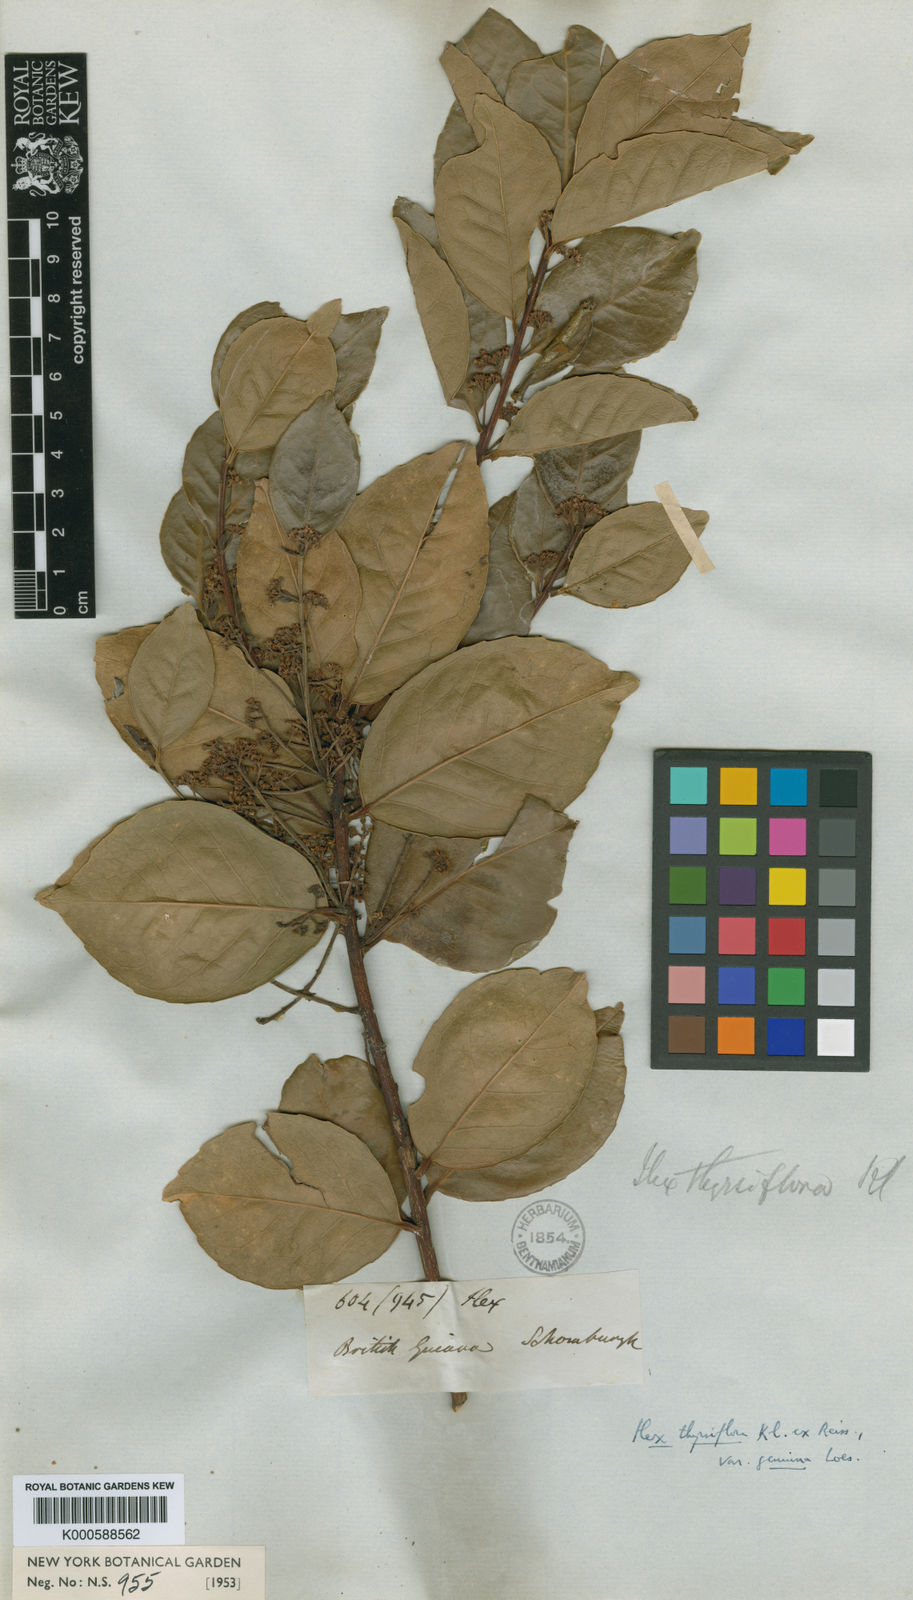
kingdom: Plantae
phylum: Tracheophyta
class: Magnoliopsida
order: Aquifoliales
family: Aquifoliaceae
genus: Ilex
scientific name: Ilex
